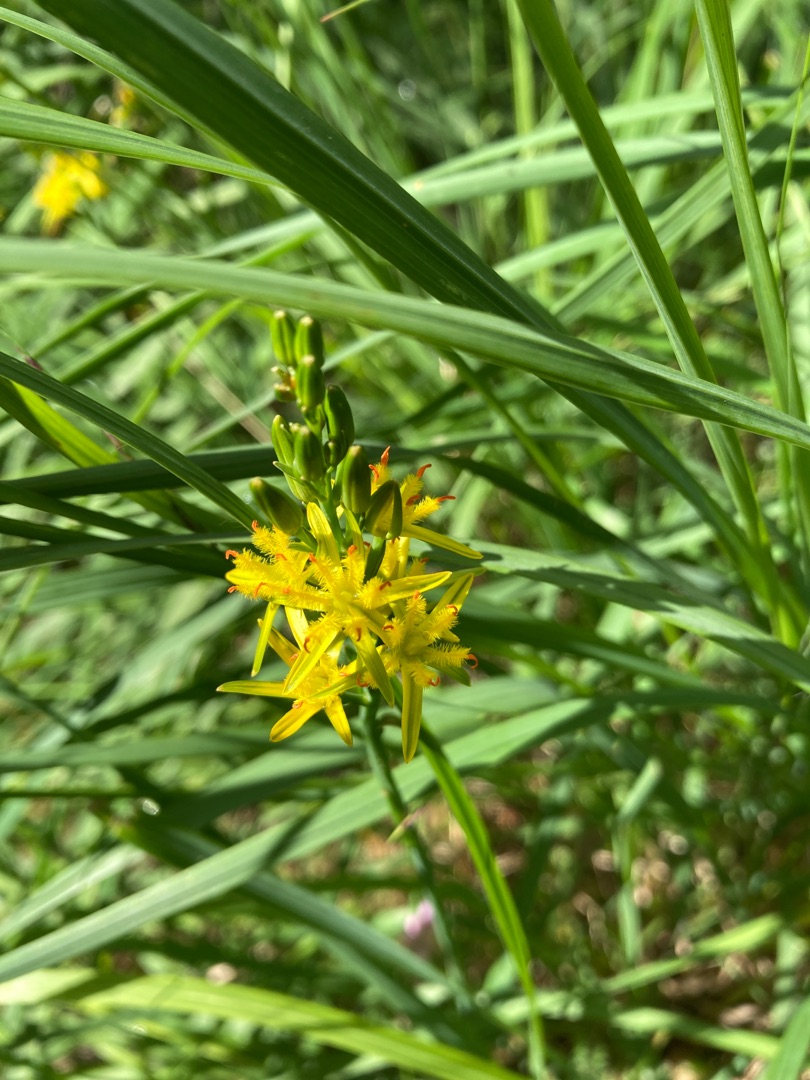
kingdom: Plantae
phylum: Tracheophyta
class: Liliopsida
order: Dioscoreales
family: Nartheciaceae
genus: Narthecium
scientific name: Narthecium ossifragum
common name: Benbræk
